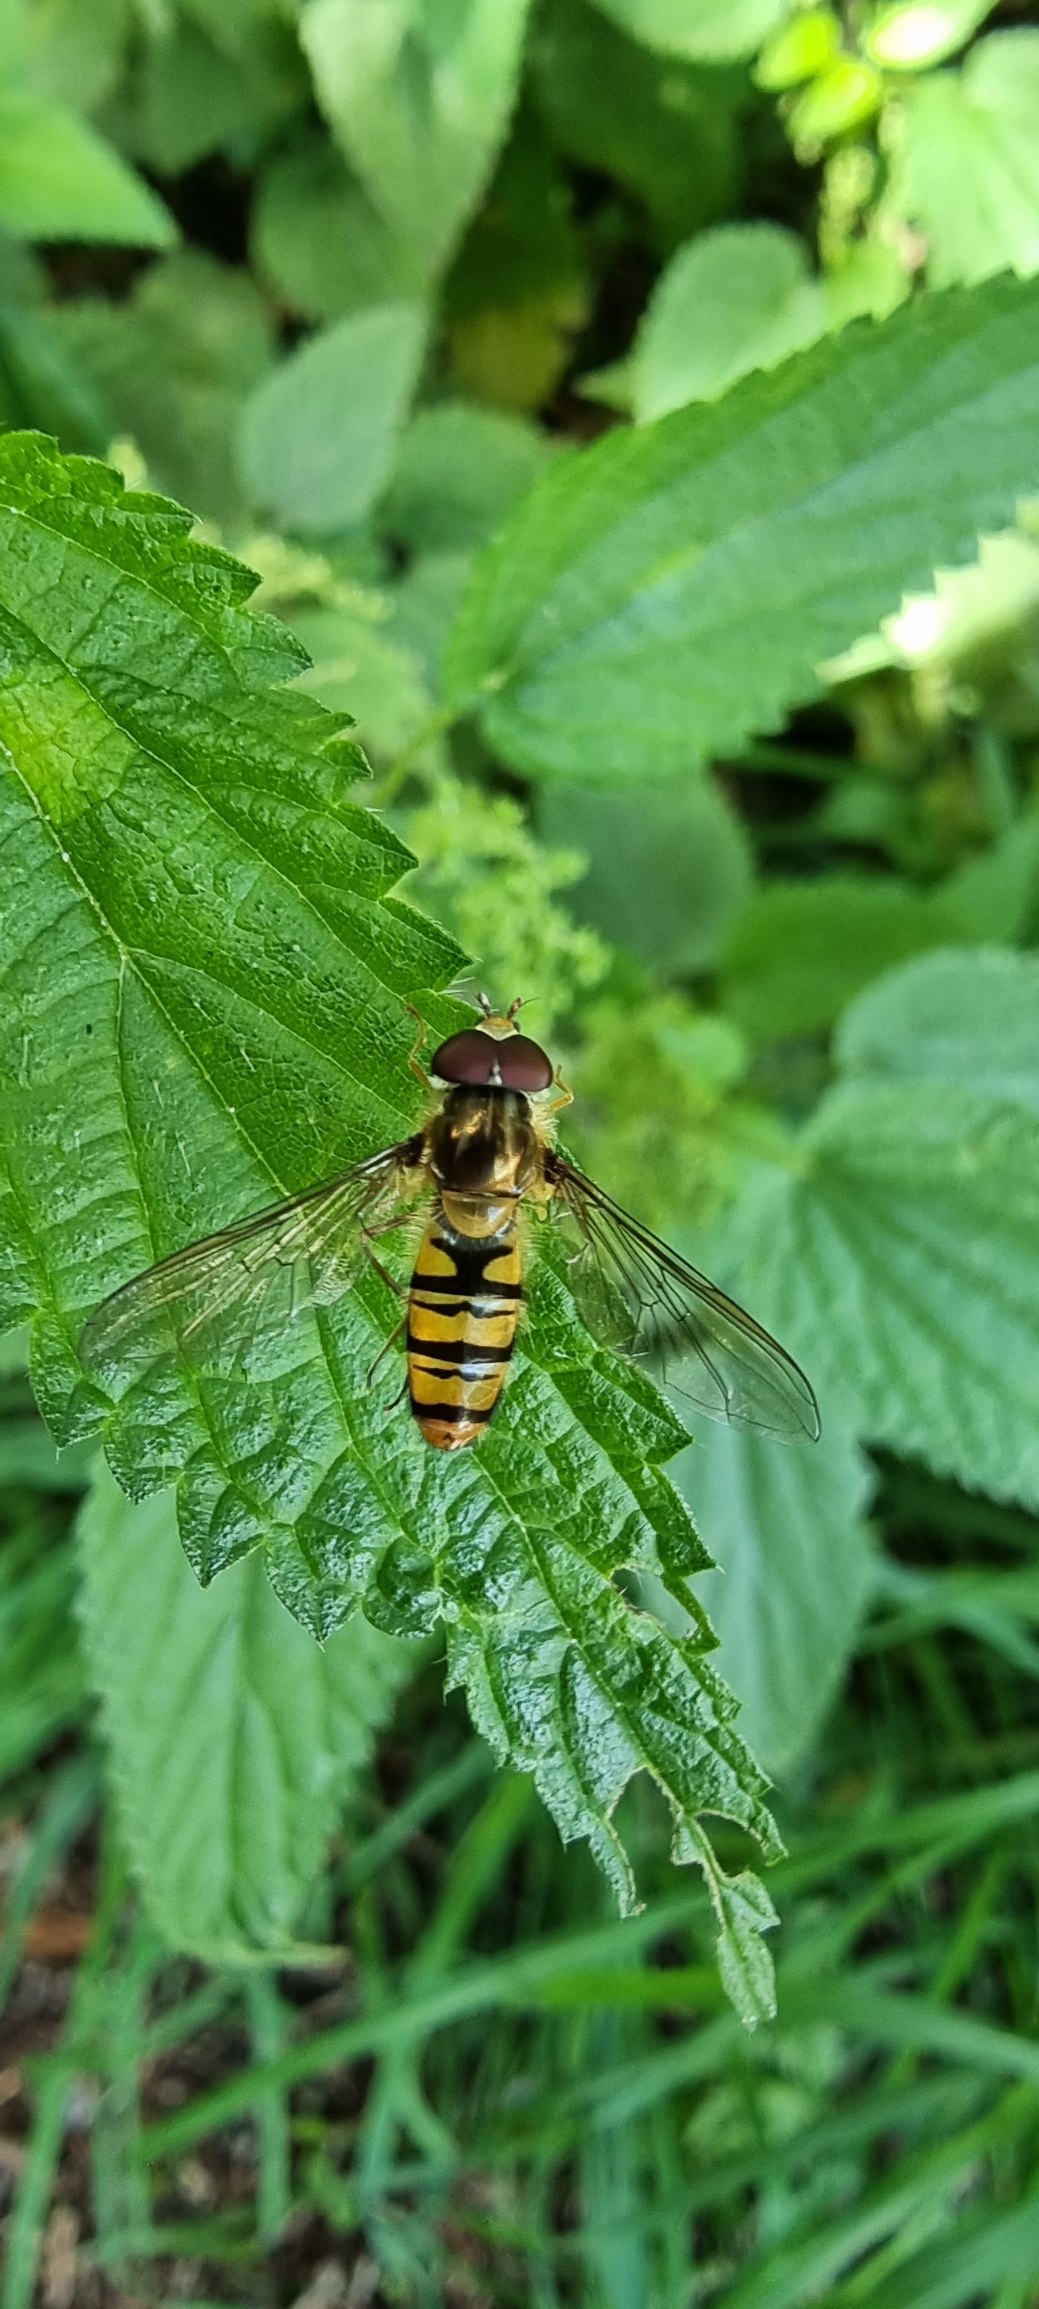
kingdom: Animalia
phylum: Arthropoda
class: Insecta
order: Diptera
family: Syrphidae
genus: Episyrphus
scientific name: Episyrphus balteatus
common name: Dobbeltbåndet svirreflue
